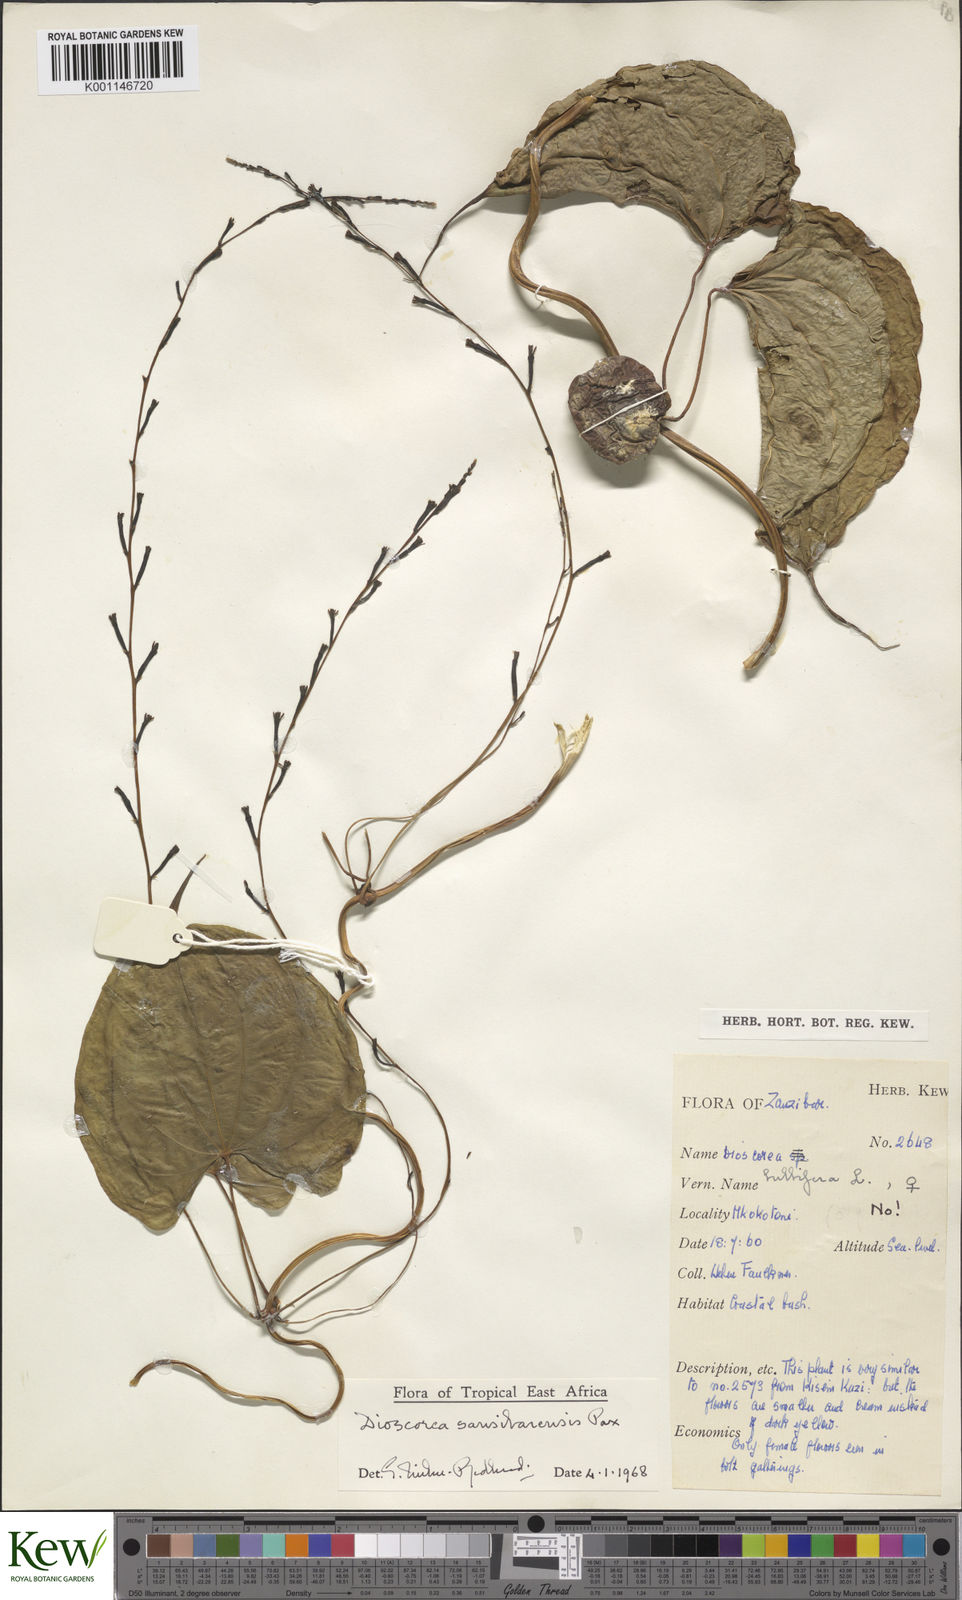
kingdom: Plantae
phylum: Tracheophyta
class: Liliopsida
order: Dioscoreales
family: Dioscoreaceae
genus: Dioscorea
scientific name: Dioscorea sansibarensis
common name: Zanzibar yam
